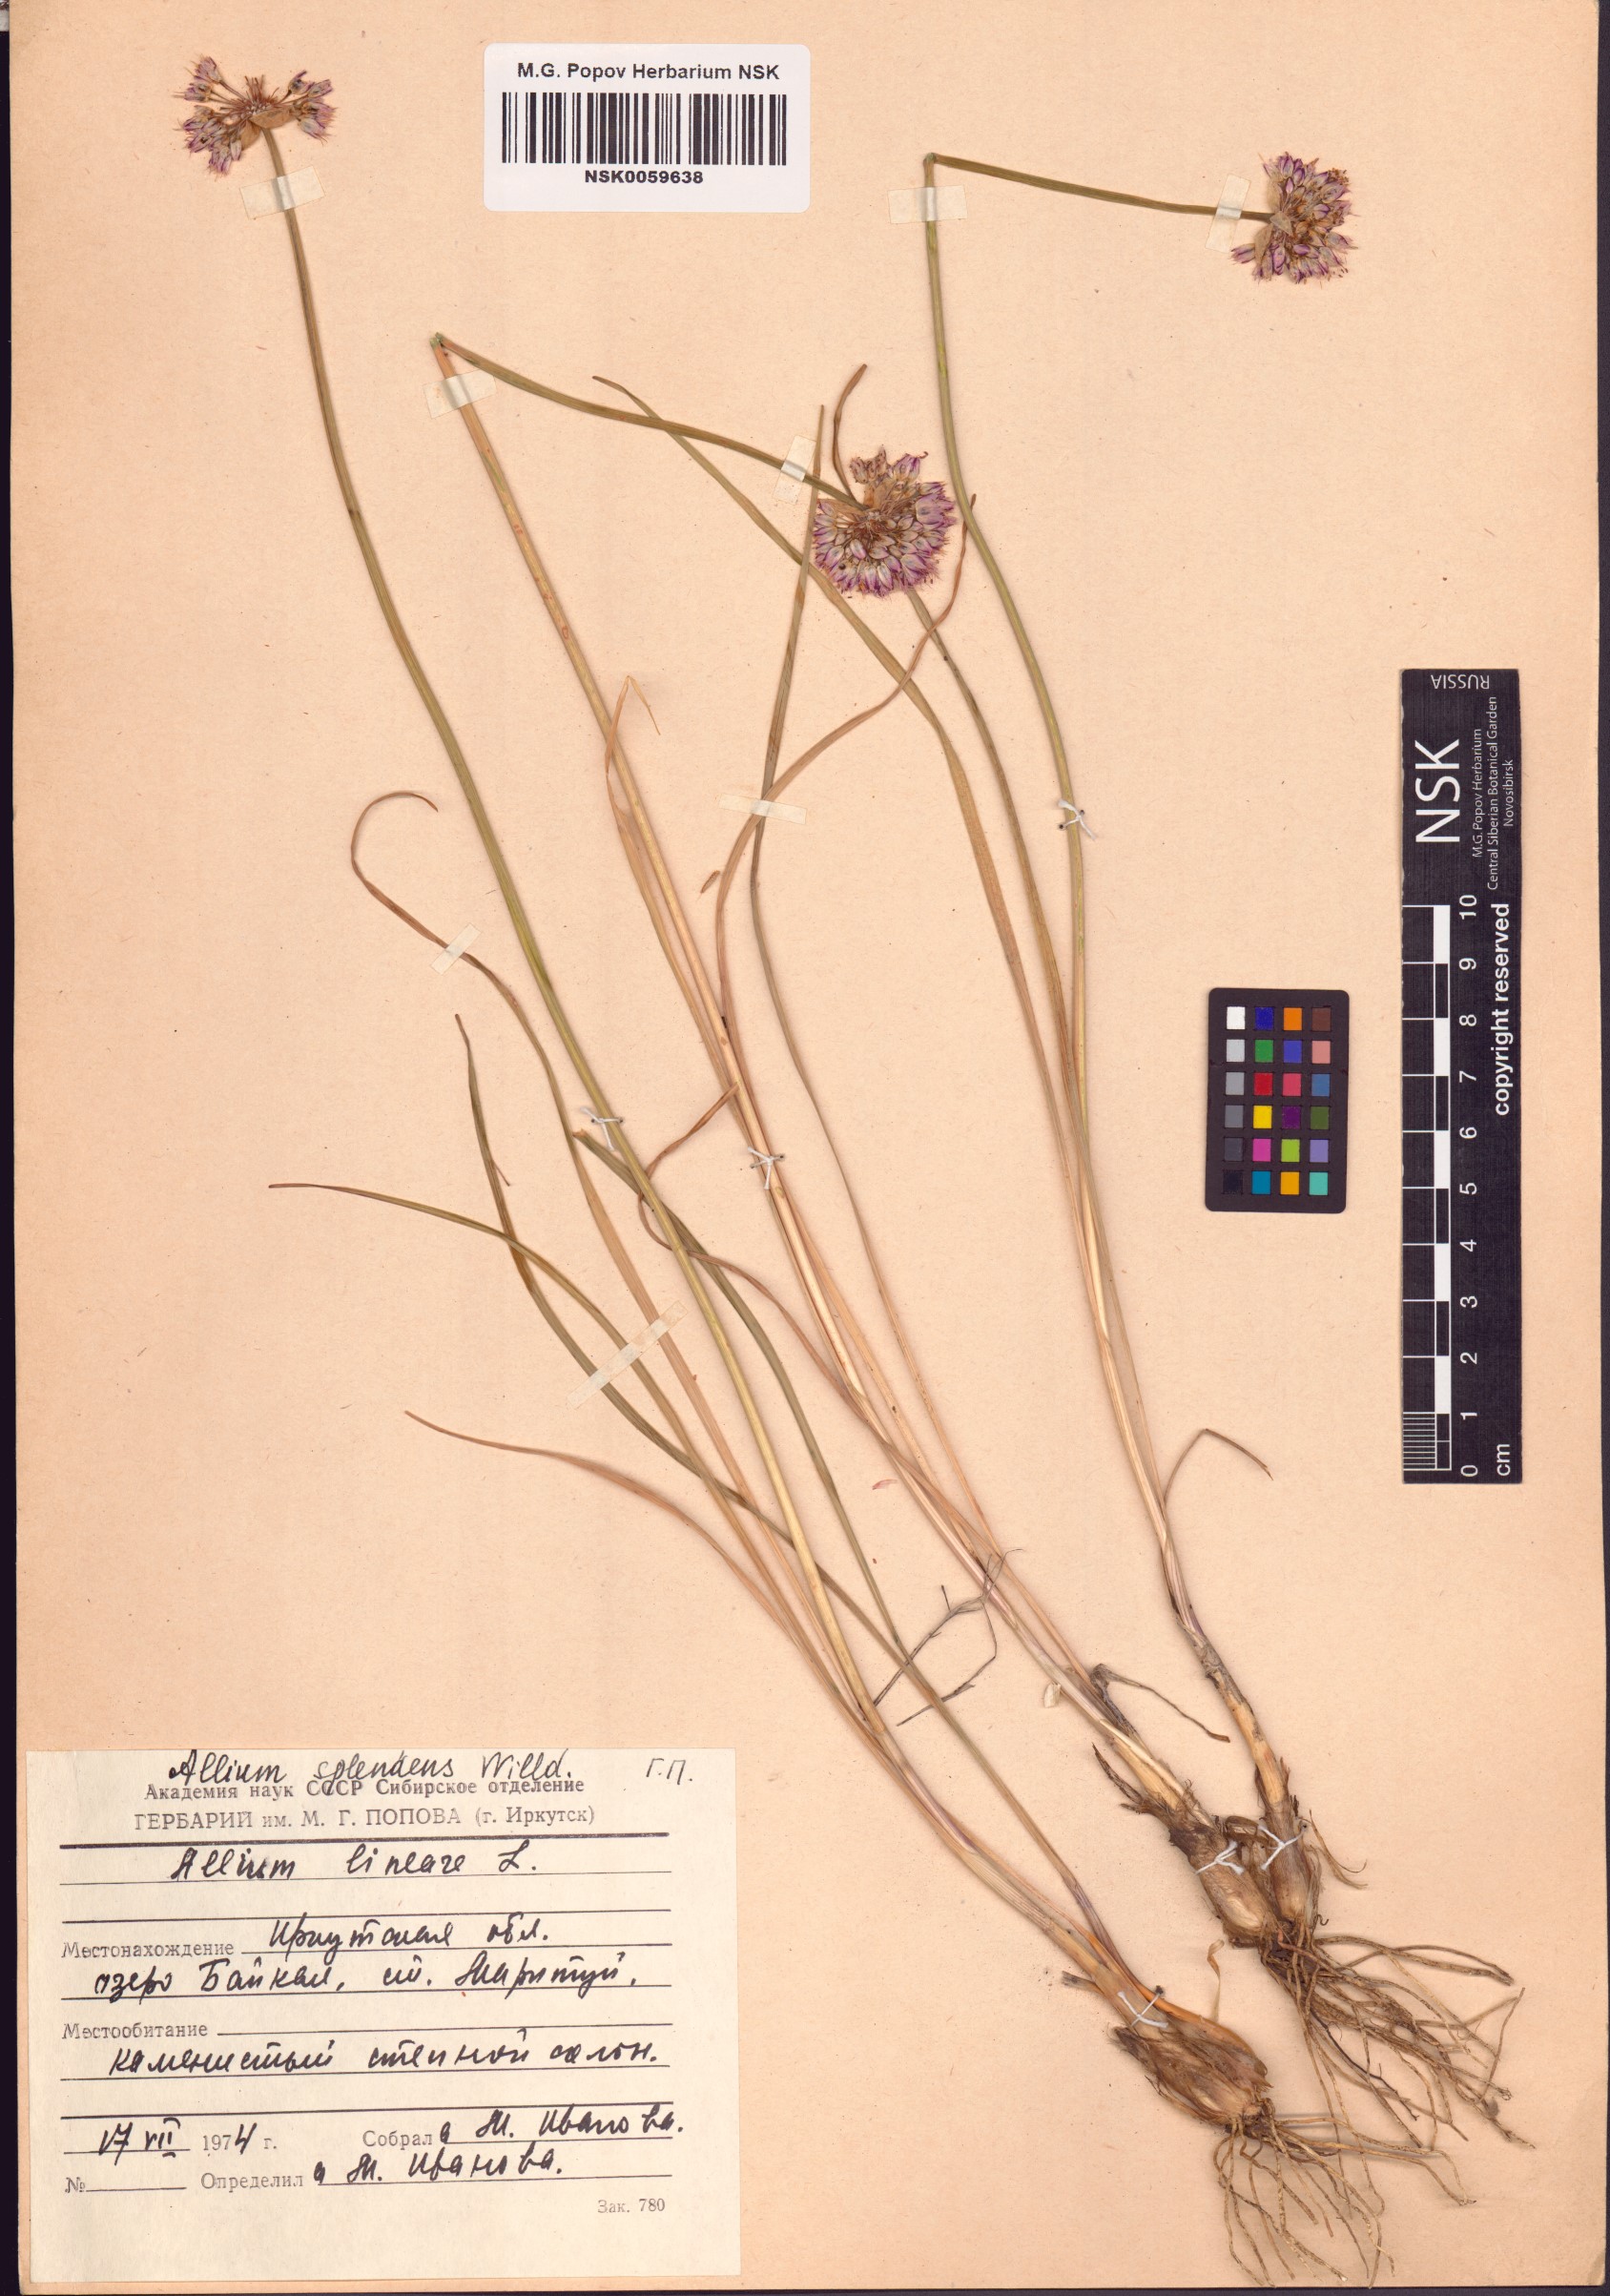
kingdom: Plantae
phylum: Tracheophyta
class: Liliopsida
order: Asparagales
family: Amaryllidaceae
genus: Allium
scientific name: Allium splendens
